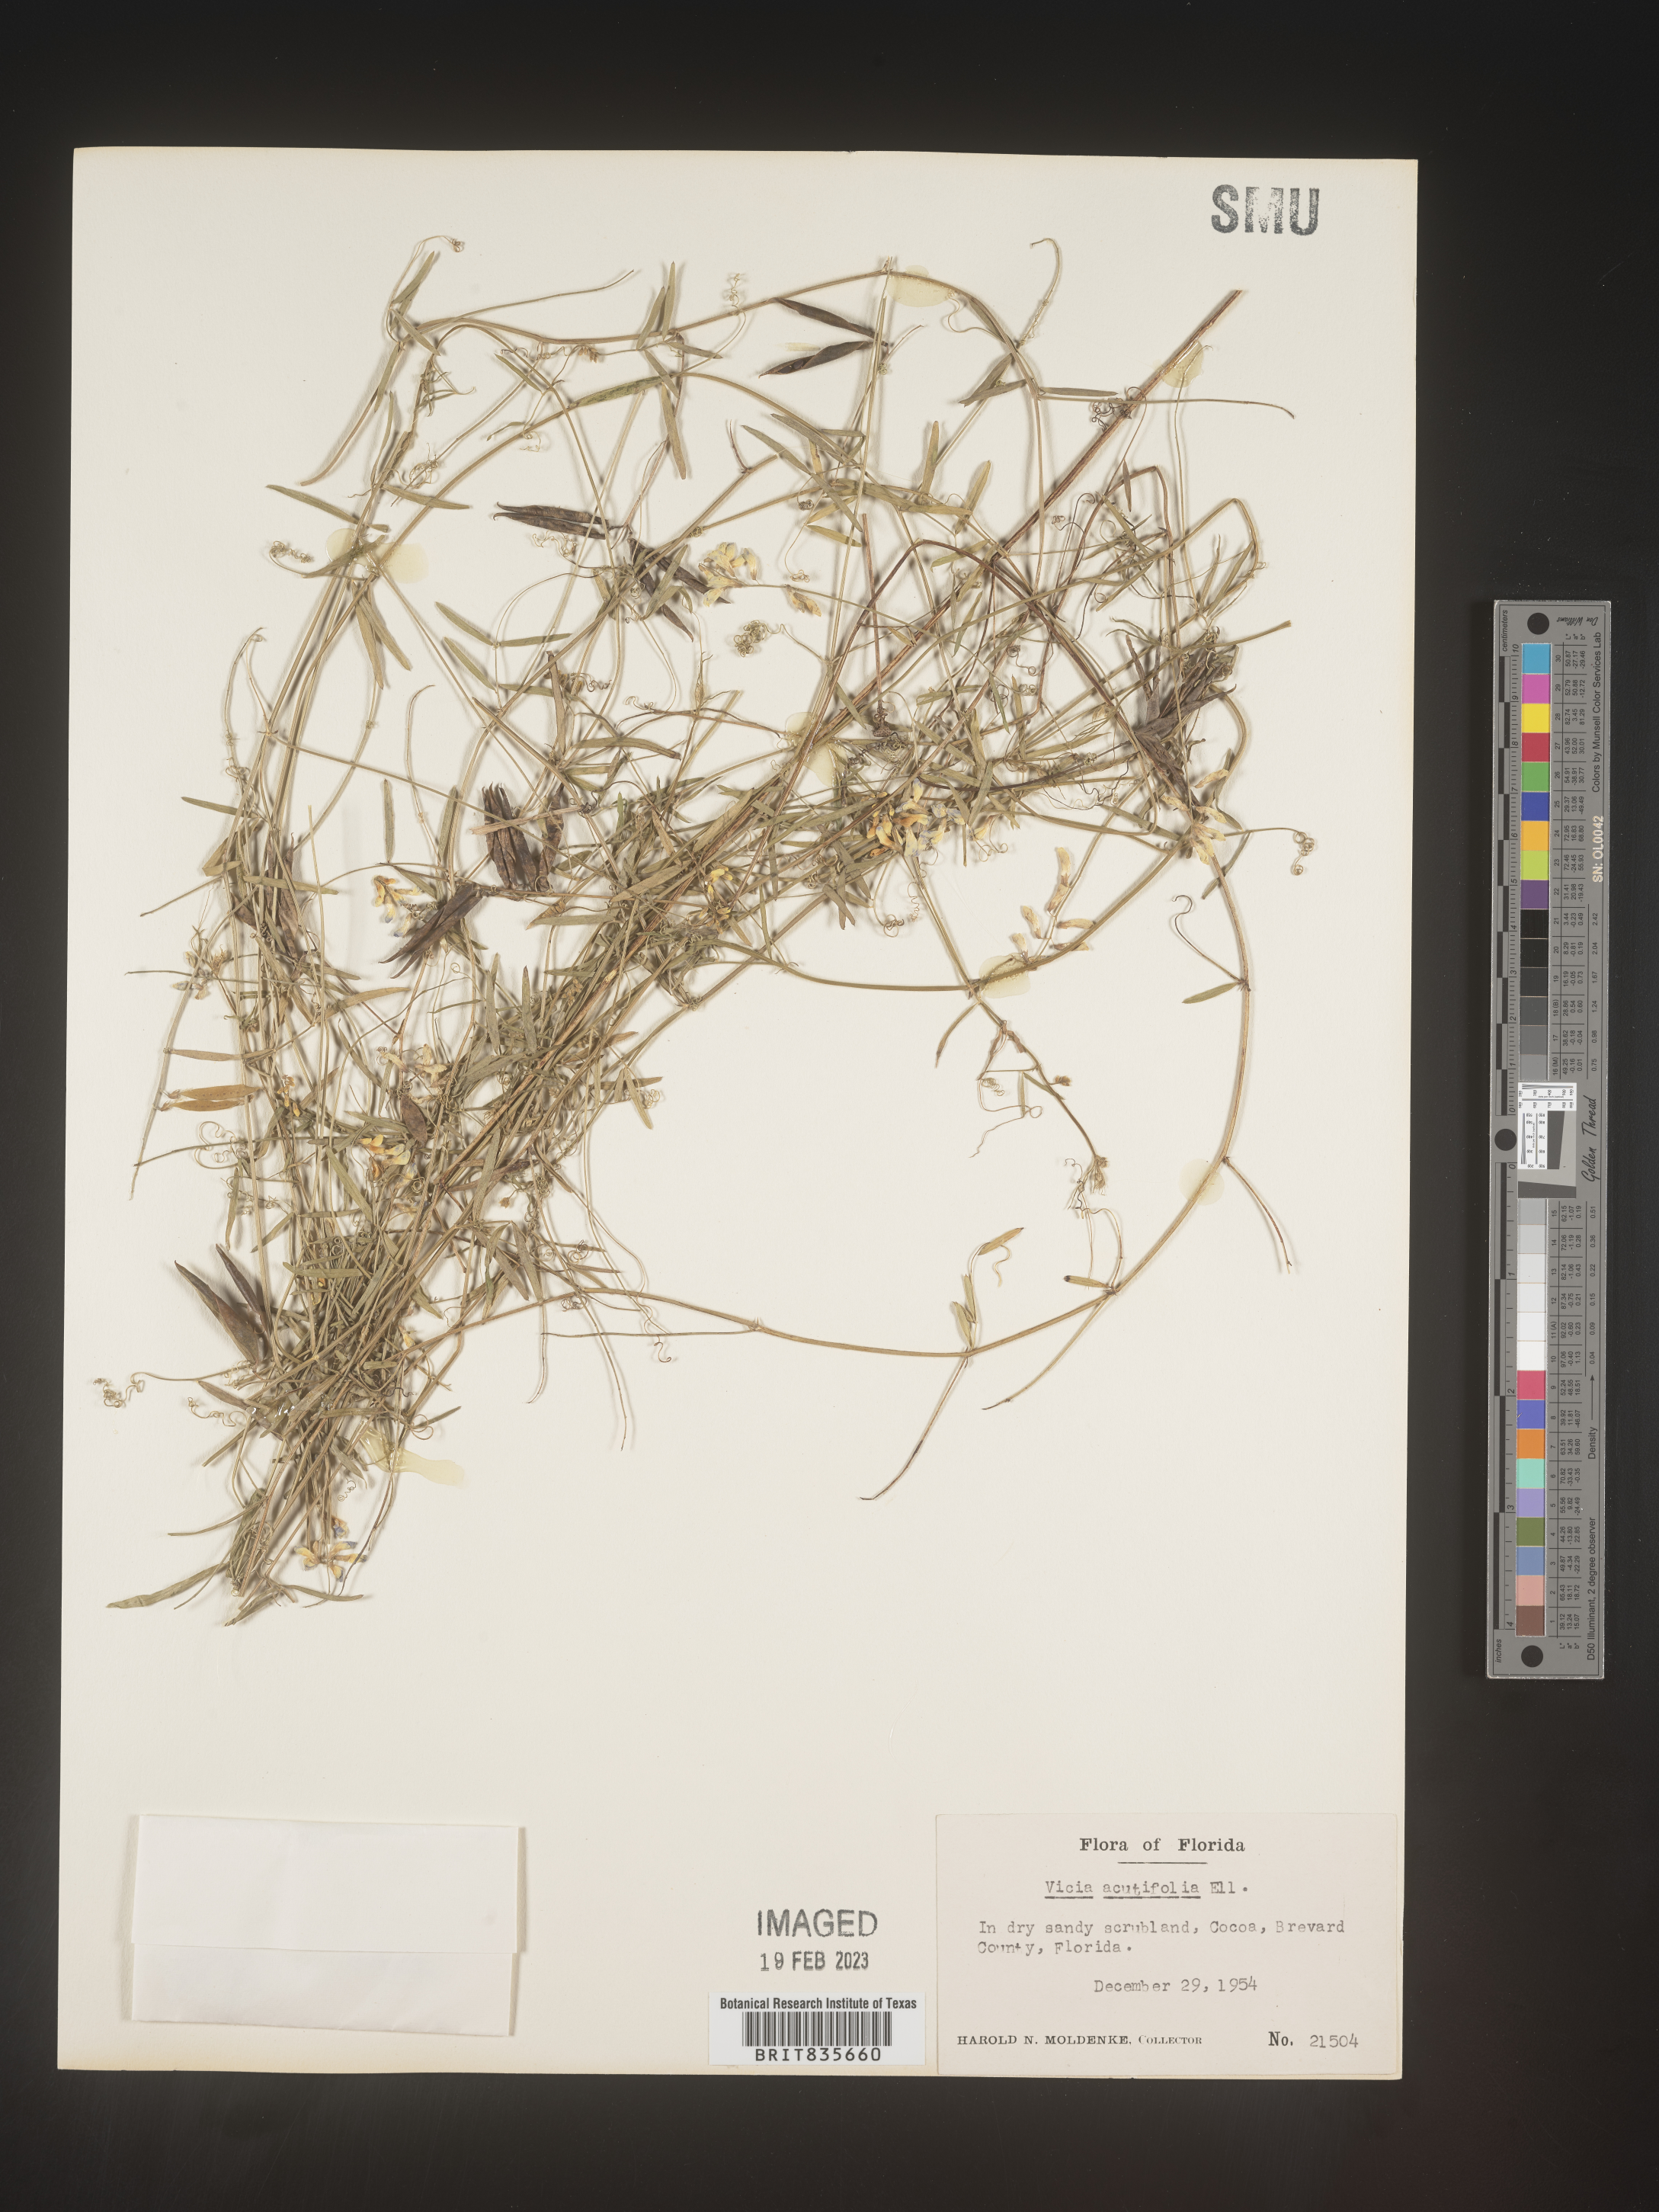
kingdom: Plantae
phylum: Tracheophyta
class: Magnoliopsida
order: Fabales
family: Fabaceae
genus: Vicia
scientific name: Vicia acutifolia
